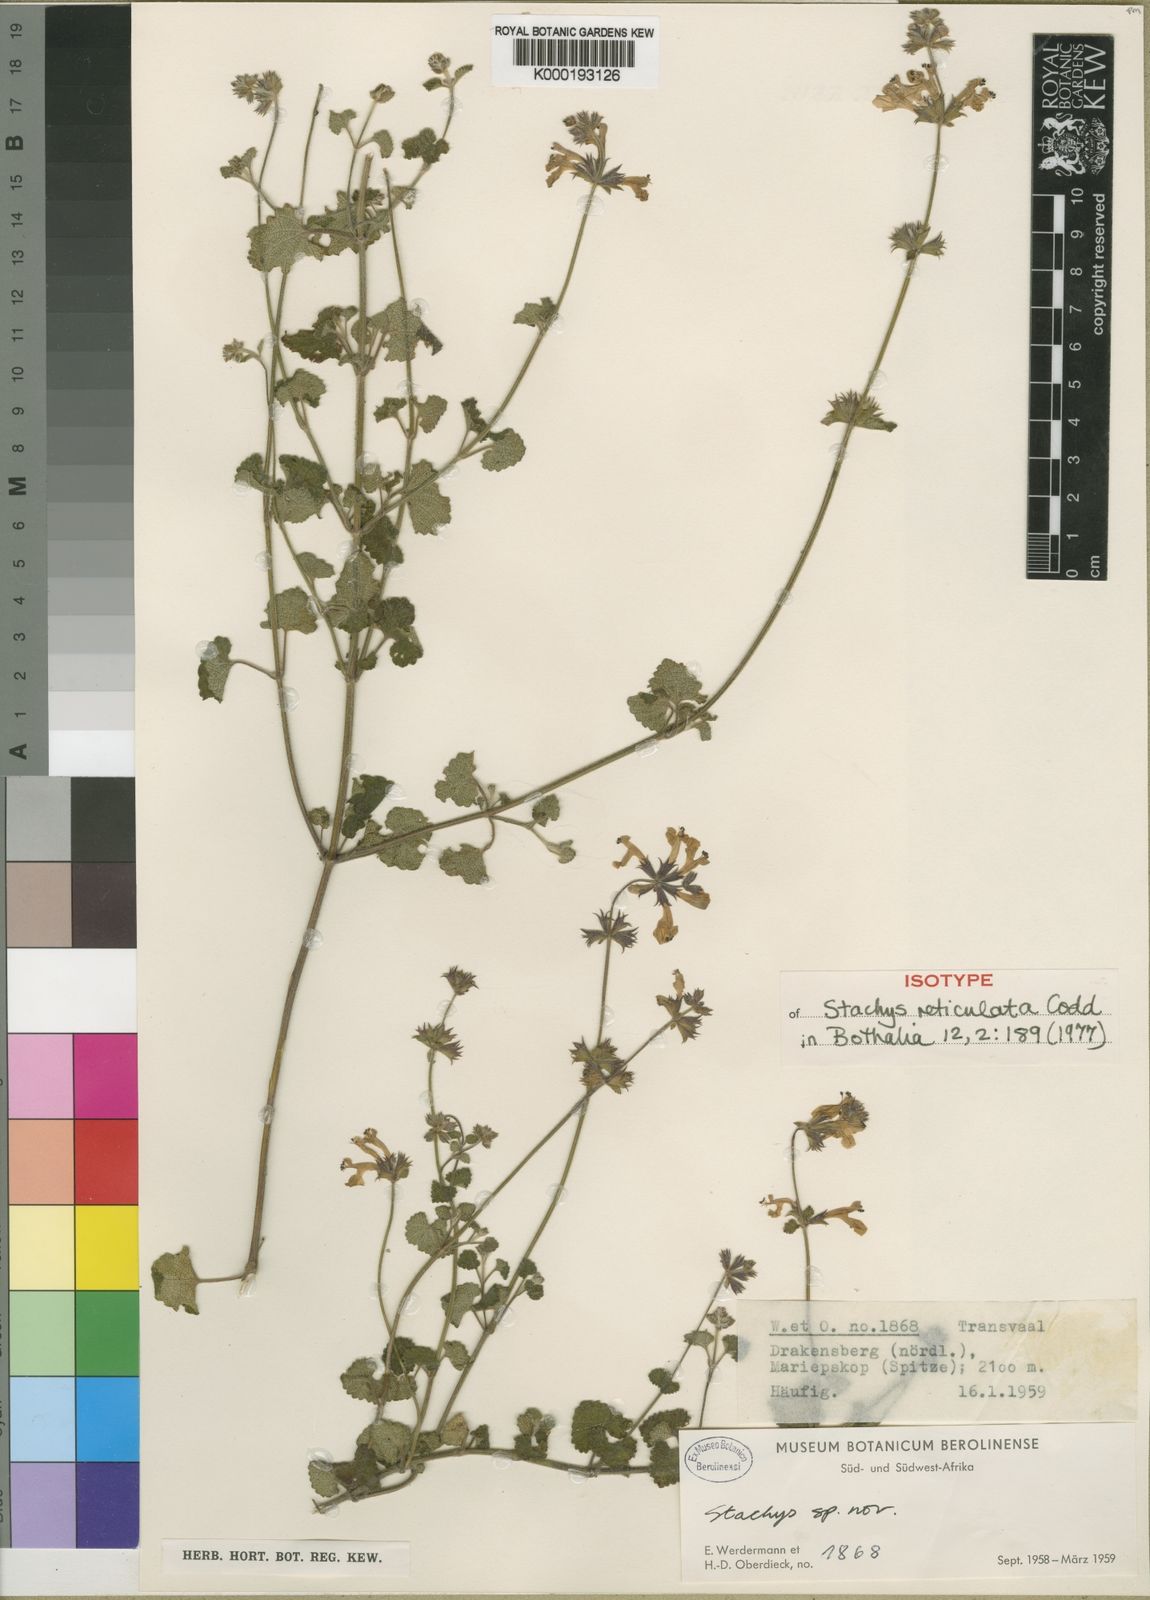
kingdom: Plantae
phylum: Tracheophyta
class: Magnoliopsida
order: Lamiales
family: Lamiaceae
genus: Stachys
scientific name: Stachys reticulata
